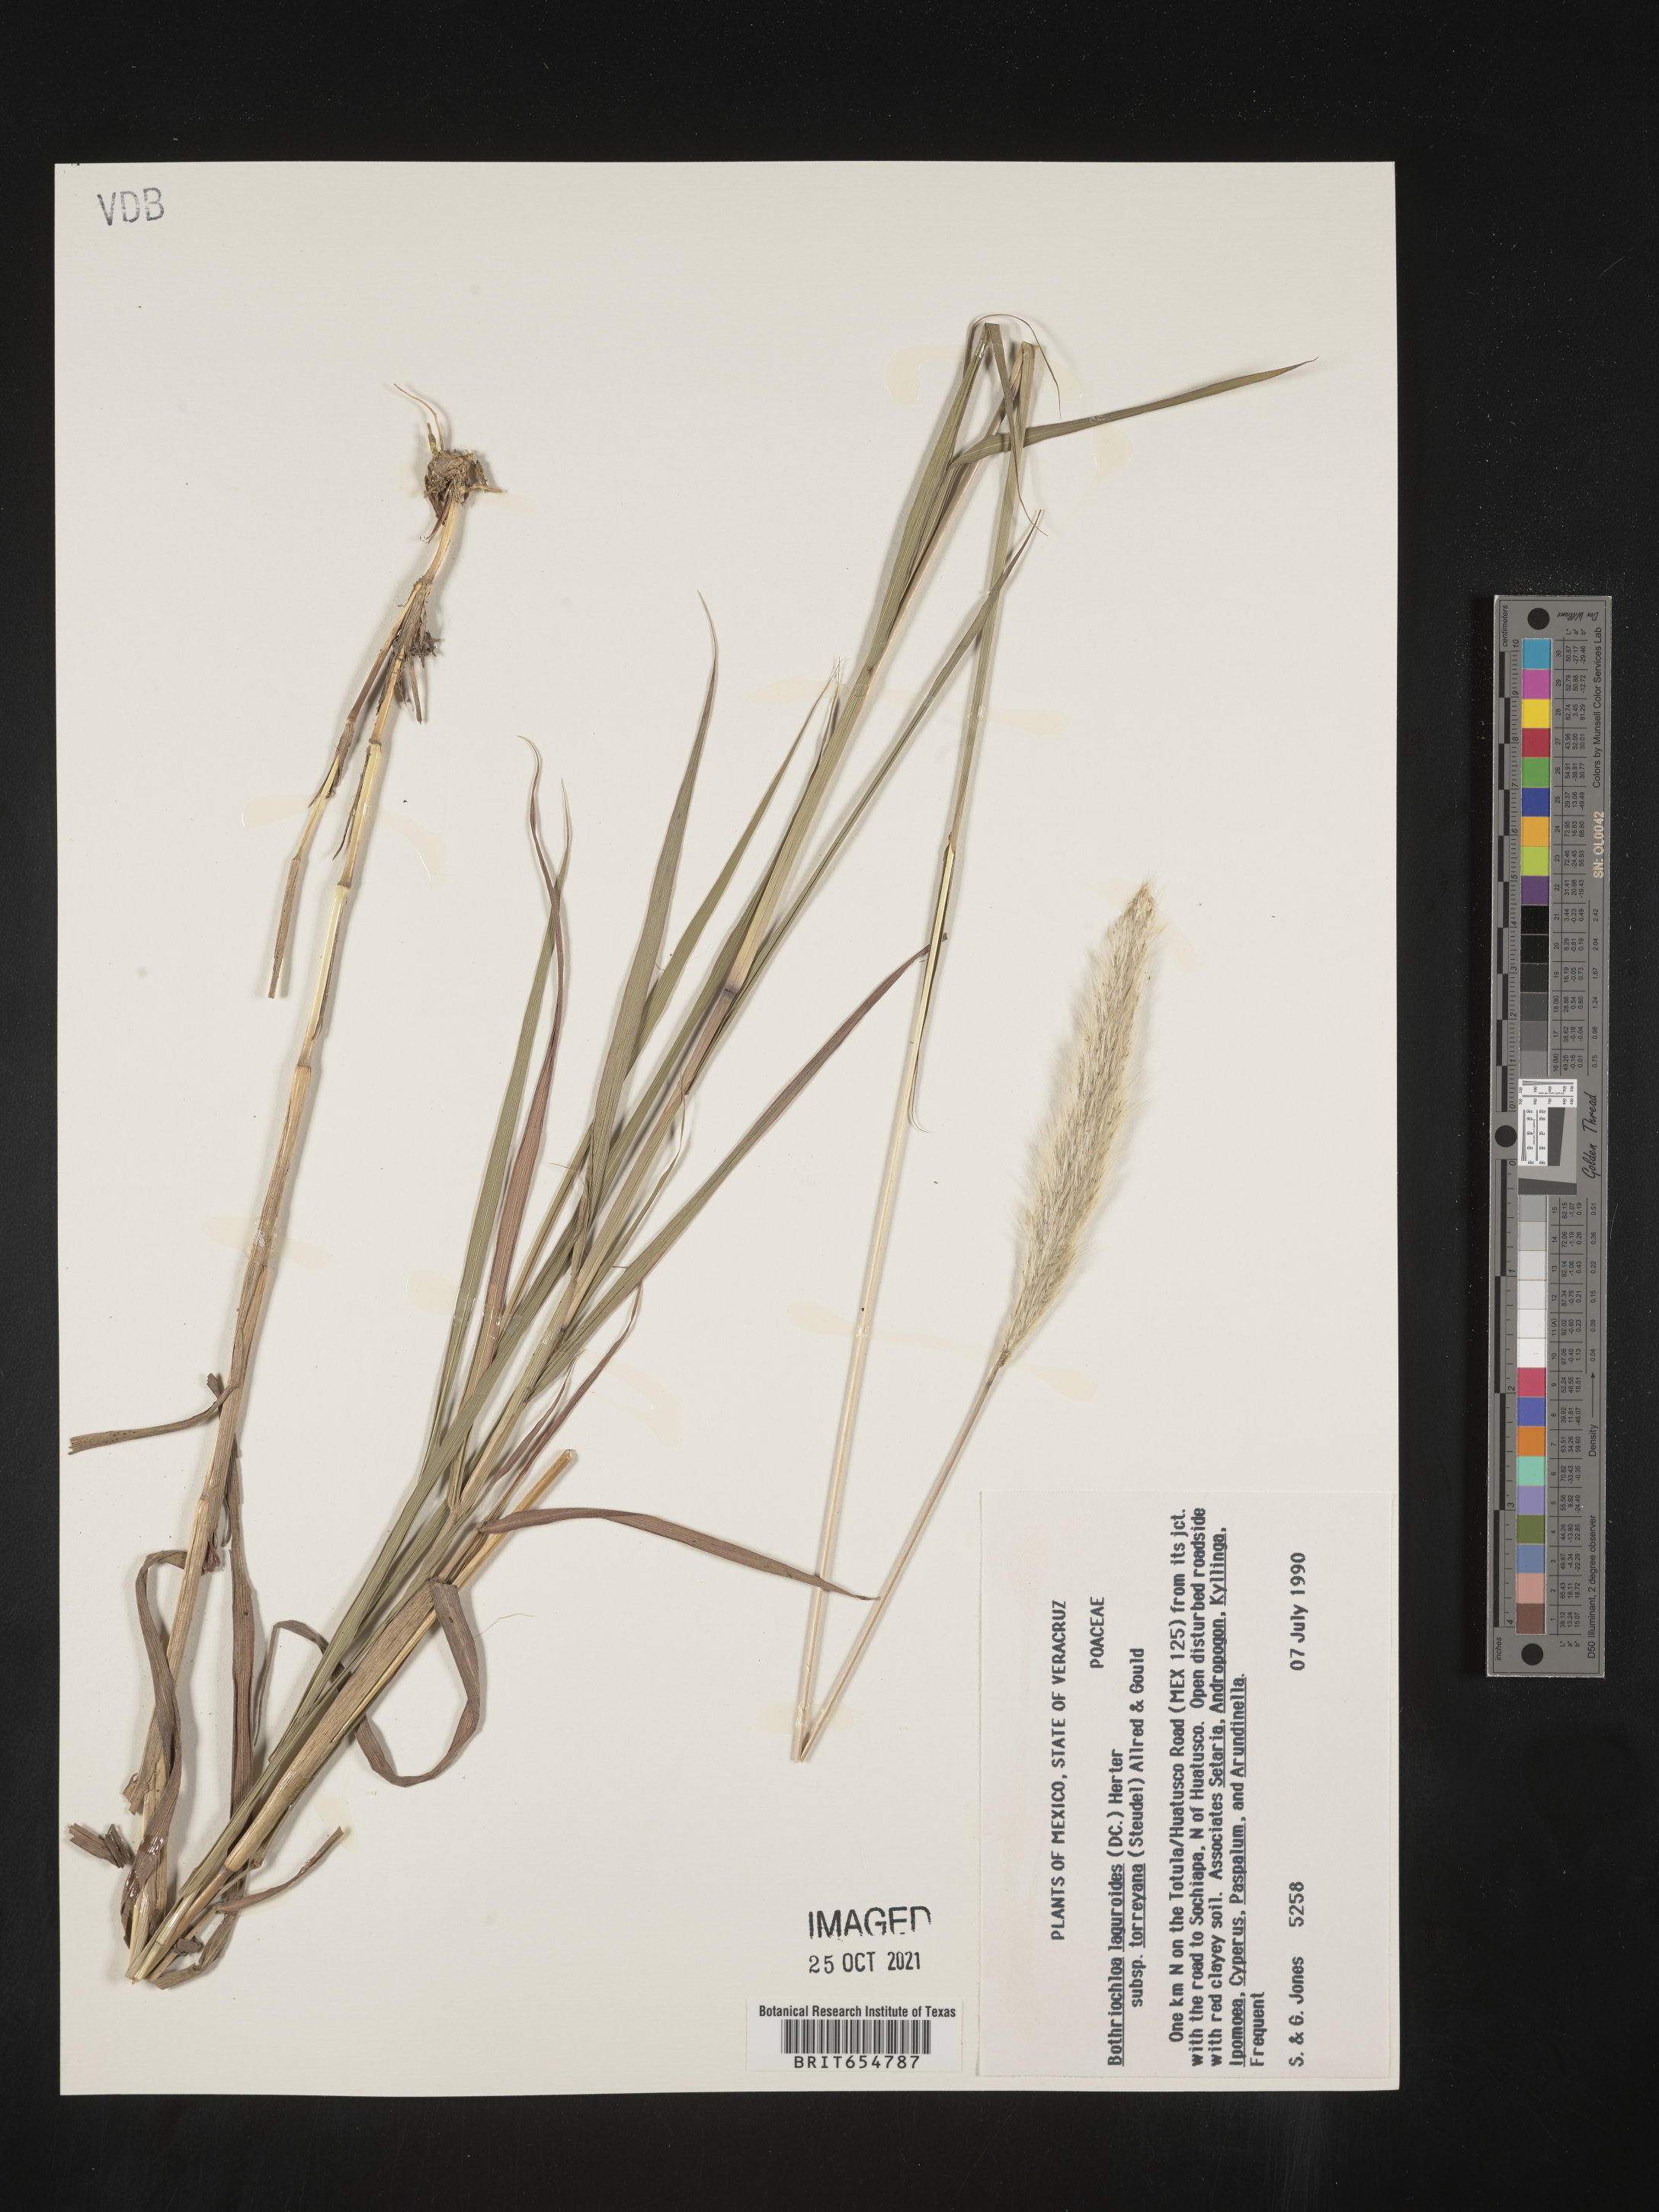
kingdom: Plantae
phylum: Tracheophyta
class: Liliopsida
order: Poales
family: Poaceae
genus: Andropogon
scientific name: Andropogon
